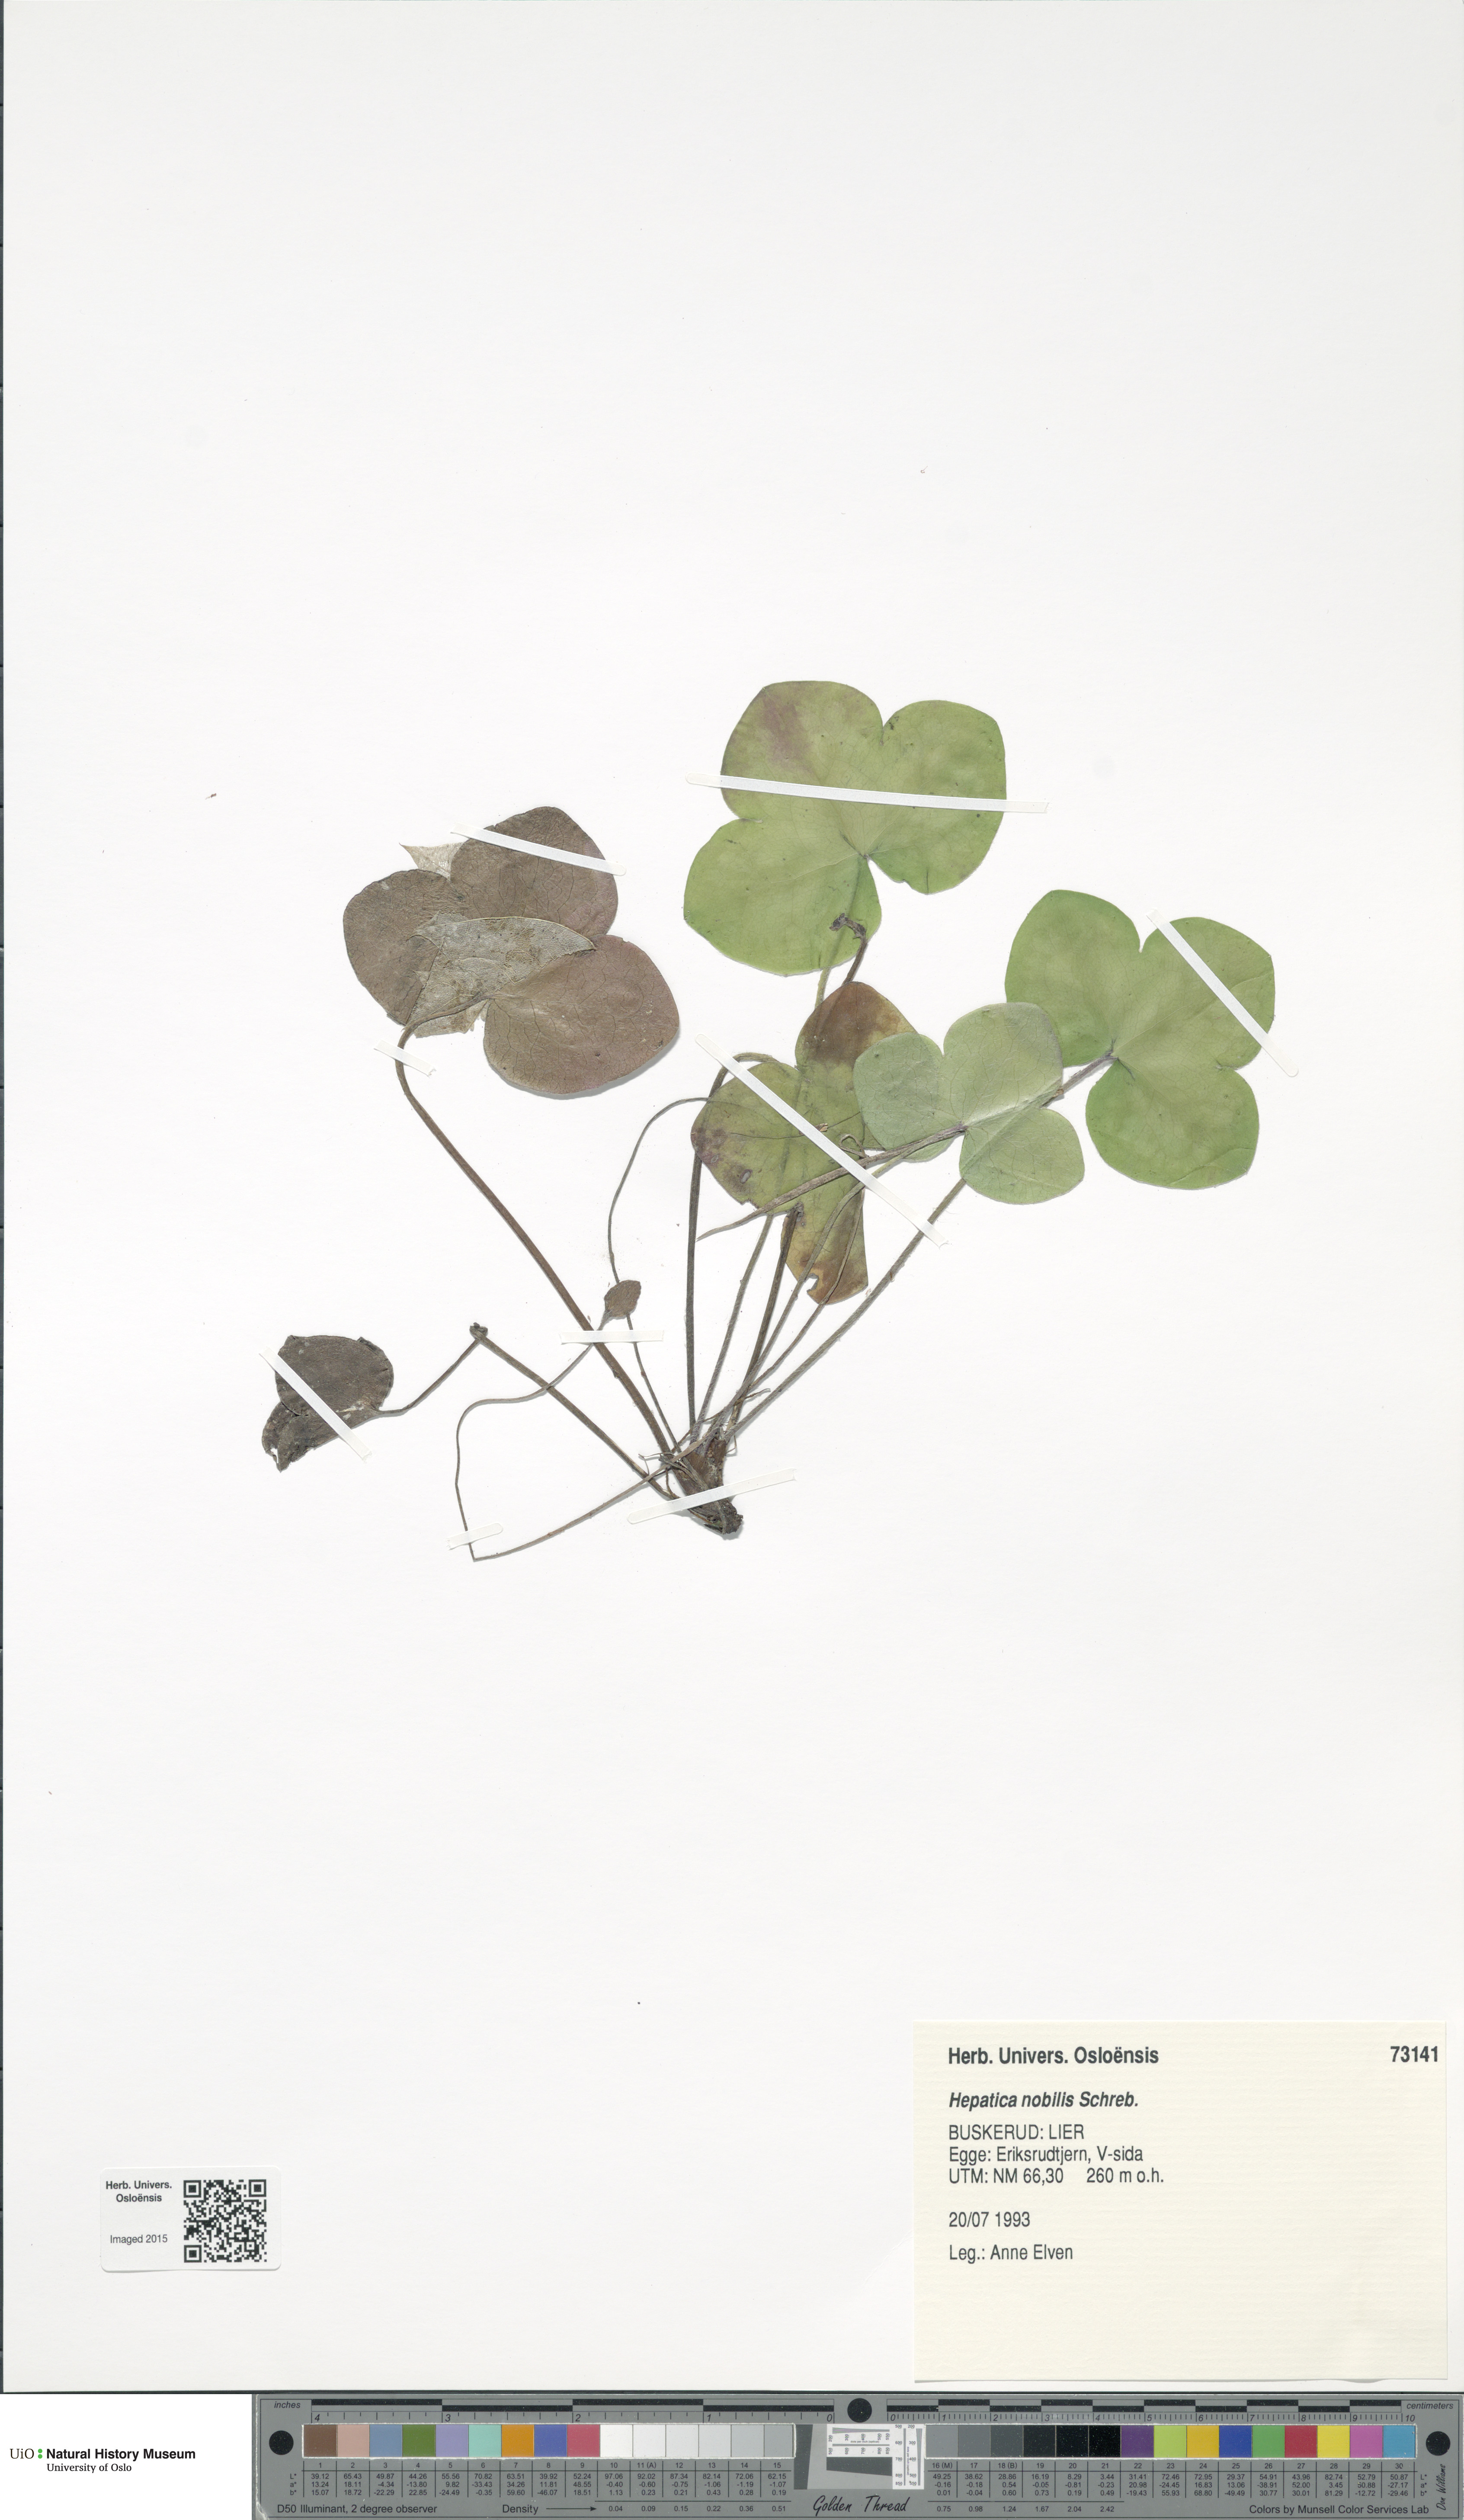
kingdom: Plantae
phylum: Tracheophyta
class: Magnoliopsida
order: Ranunculales
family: Ranunculaceae
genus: Hepatica
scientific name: Hepatica nobilis
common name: Liverleaf
